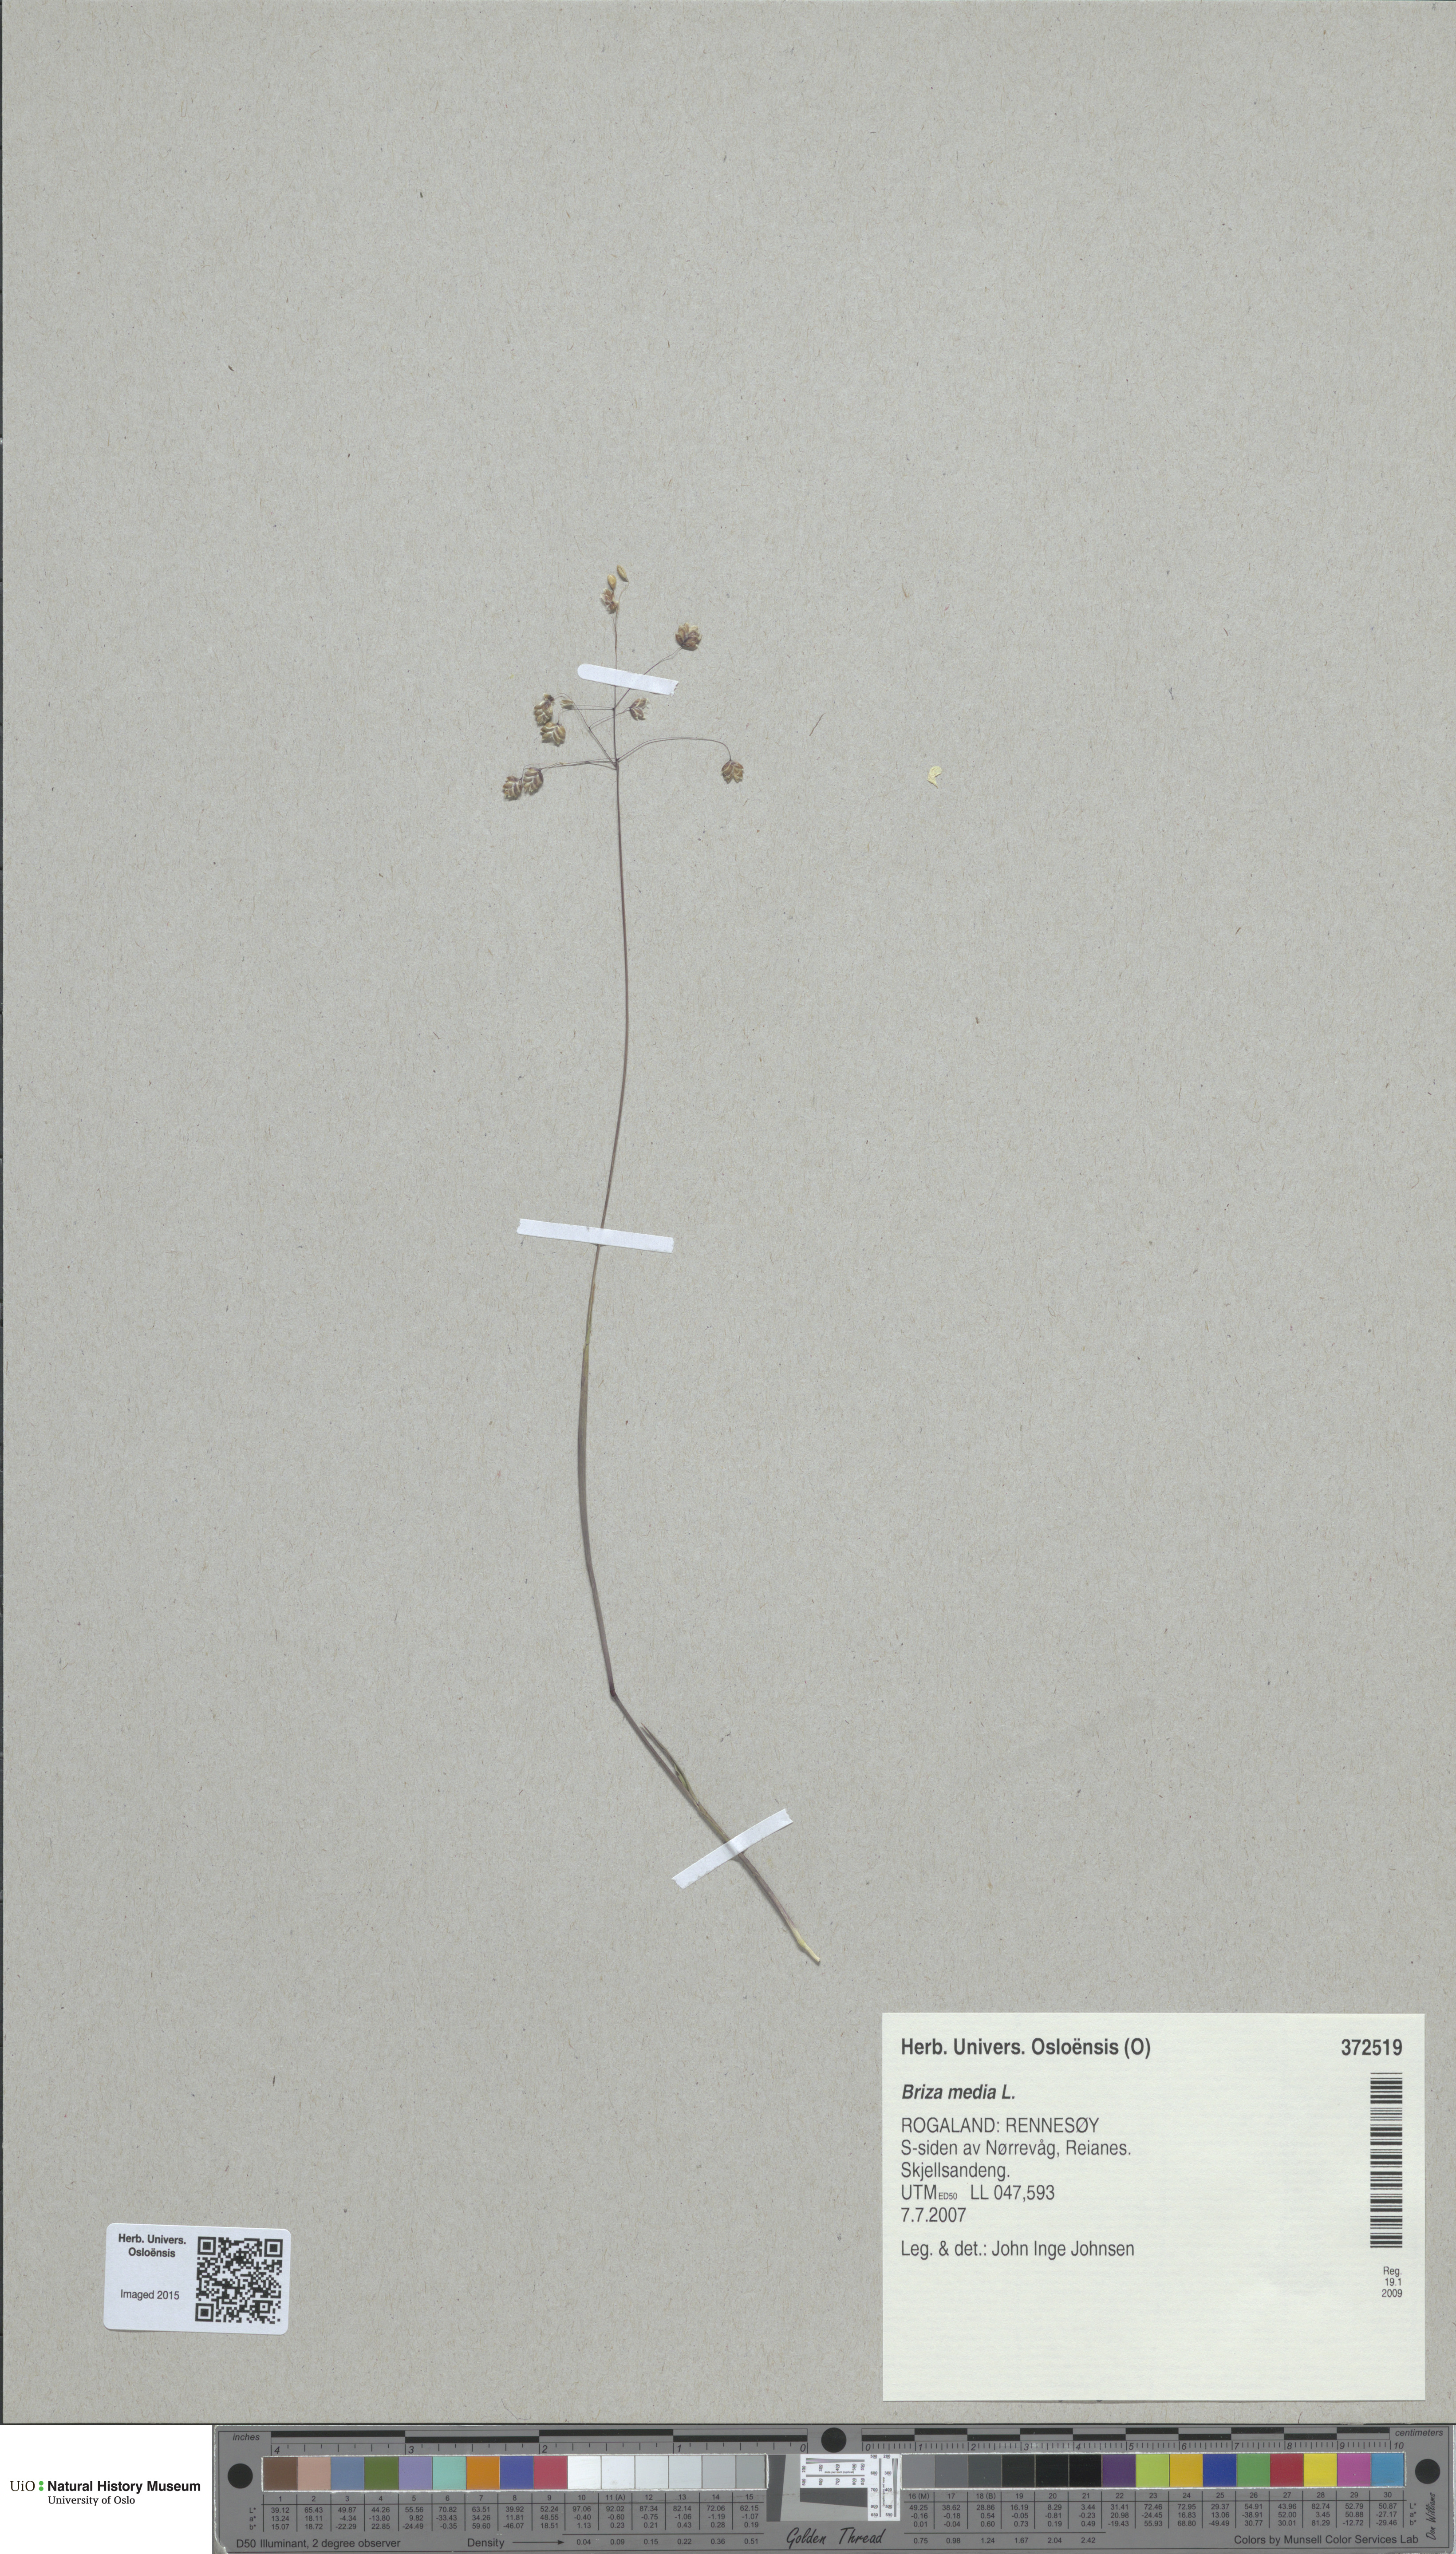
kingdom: Plantae
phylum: Tracheophyta
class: Liliopsida
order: Poales
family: Poaceae
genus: Briza
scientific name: Briza media
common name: Quaking grass
